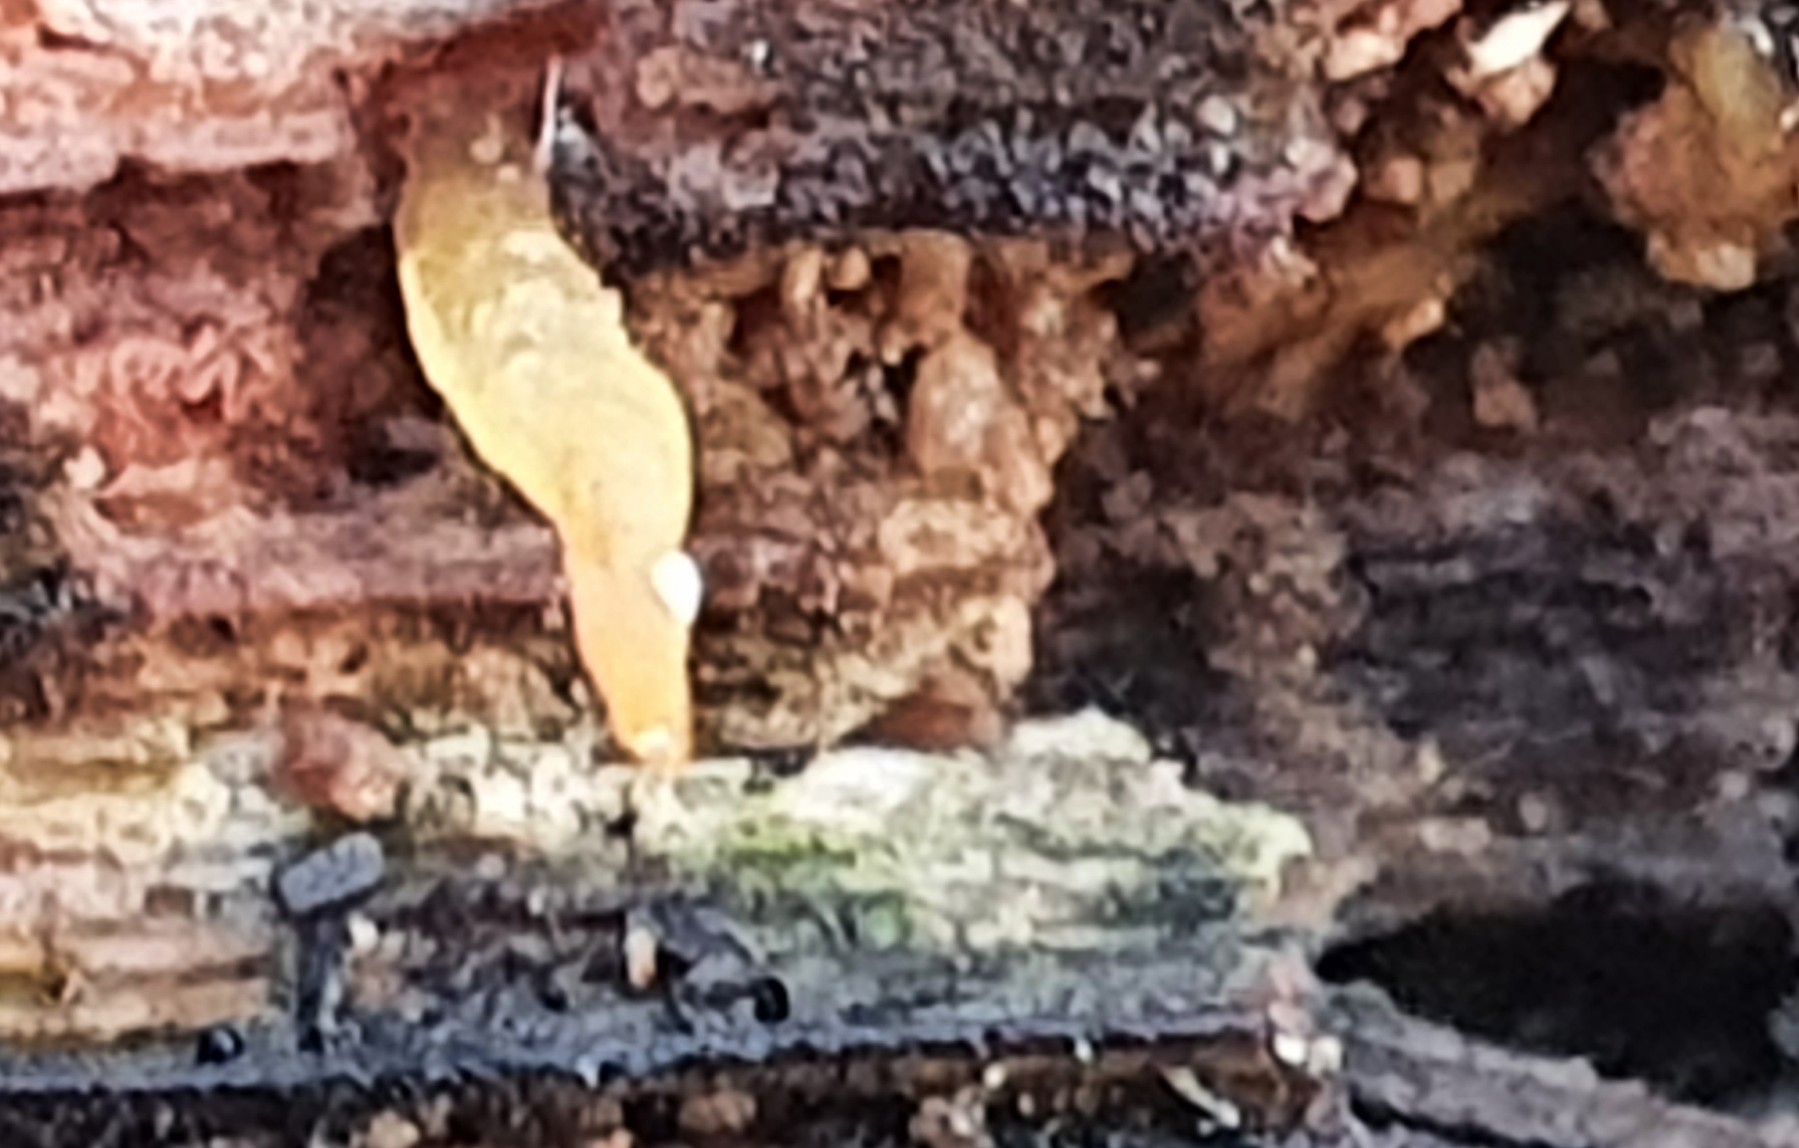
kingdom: Fungi
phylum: Basidiomycota
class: Dacrymycetes
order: Dacrymycetales
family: Dacrymycetaceae
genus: Calocera
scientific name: Calocera cornea
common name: liden guldgaffel
